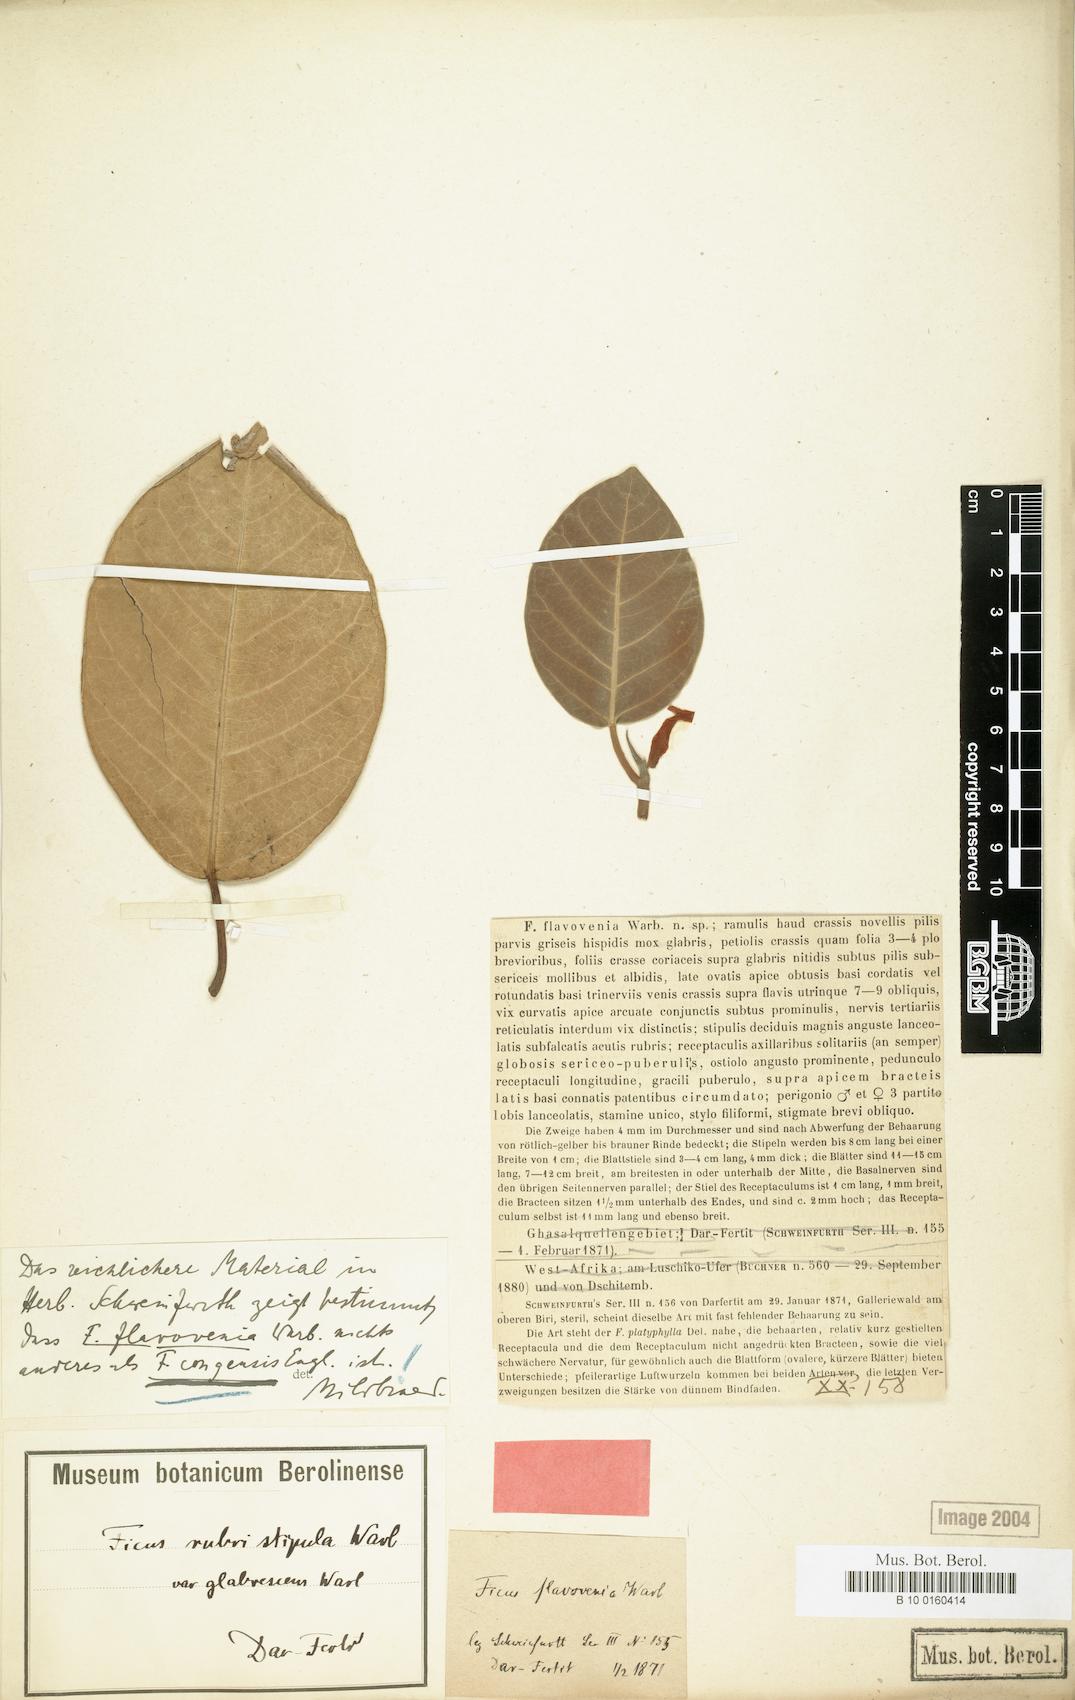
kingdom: Plantae
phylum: Tracheophyta
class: Magnoliopsida
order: Rosales
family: Moraceae
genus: Ficus
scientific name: Ficus trichopoda
